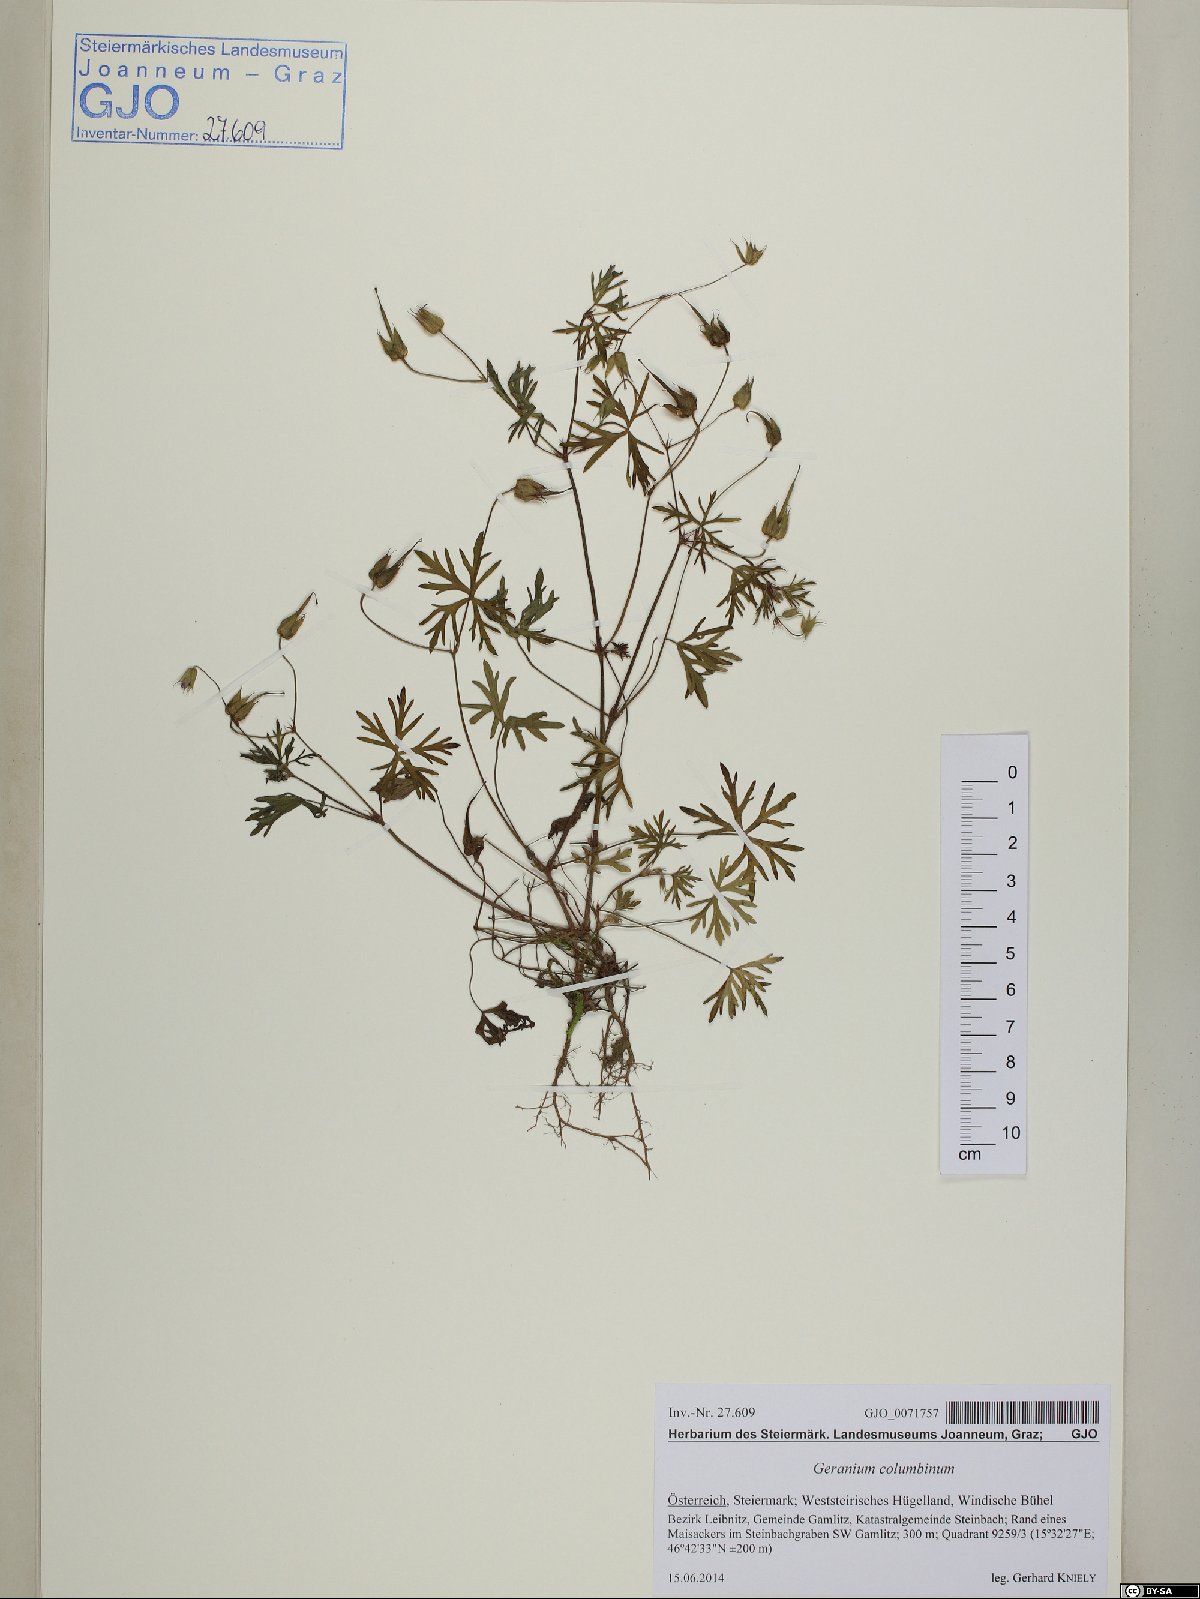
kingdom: Plantae
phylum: Tracheophyta
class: Magnoliopsida
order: Geraniales
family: Geraniaceae
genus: Geranium
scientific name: Geranium columbinum
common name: Long-stalked crane's-bill
